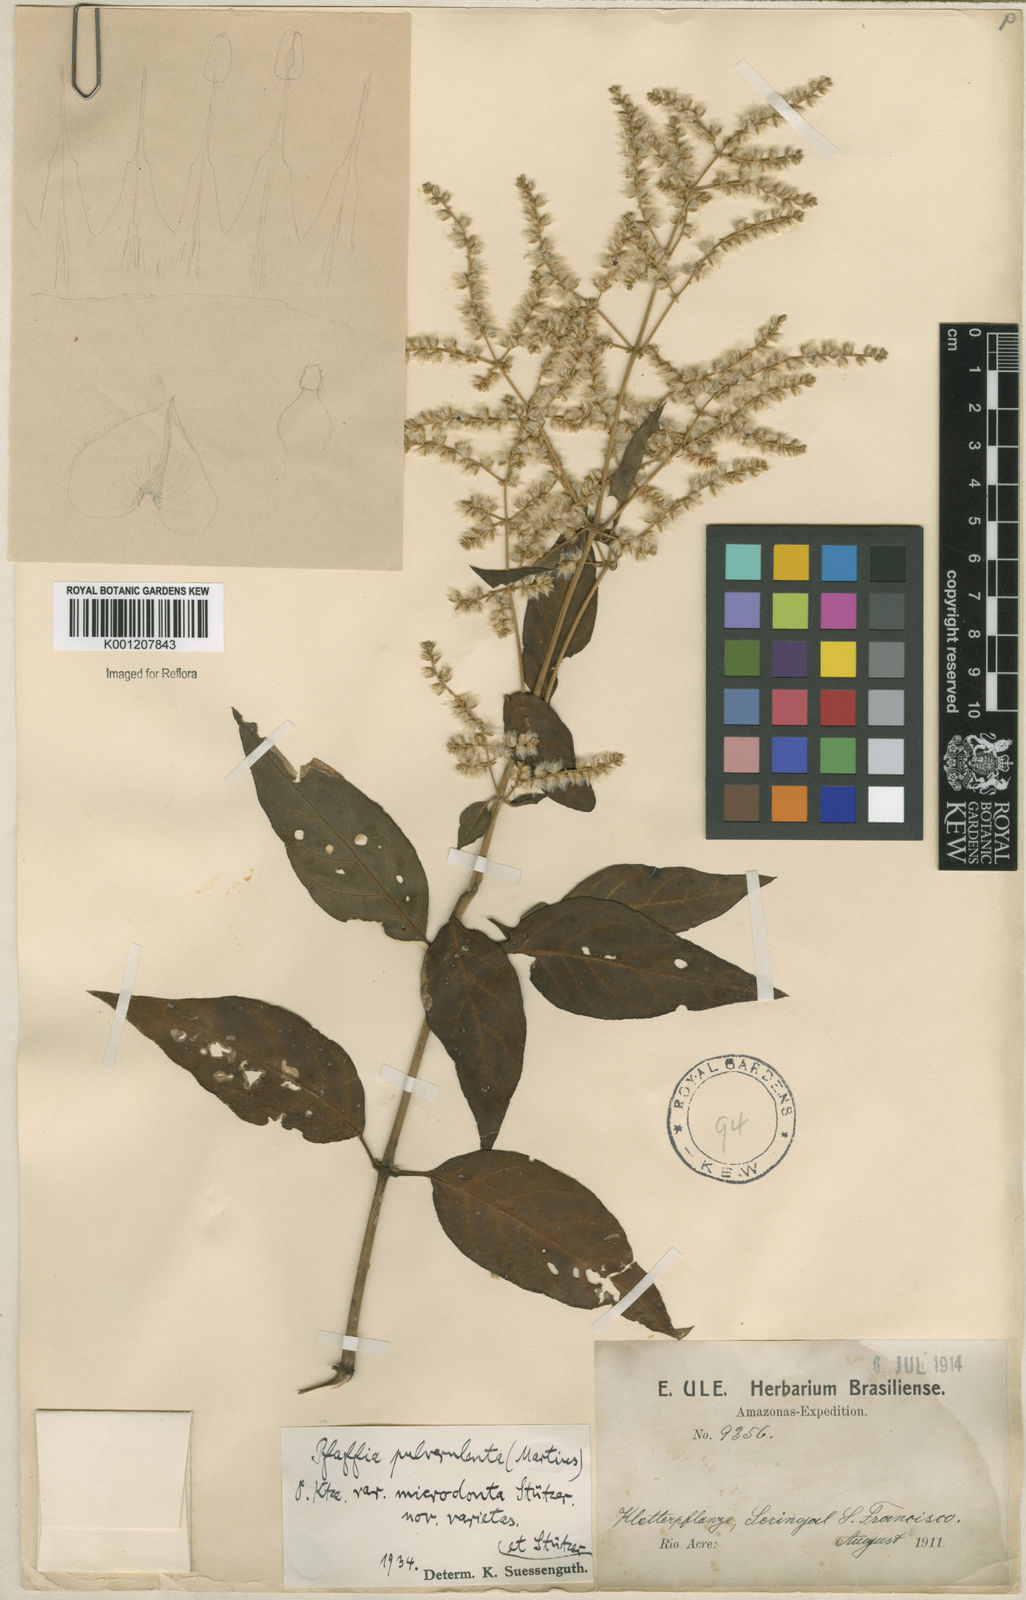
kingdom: Plantae
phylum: Tracheophyta
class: Magnoliopsida
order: Caryophyllales
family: Amaranthaceae
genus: Hebanthe
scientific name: Hebanthe pulverulenta
